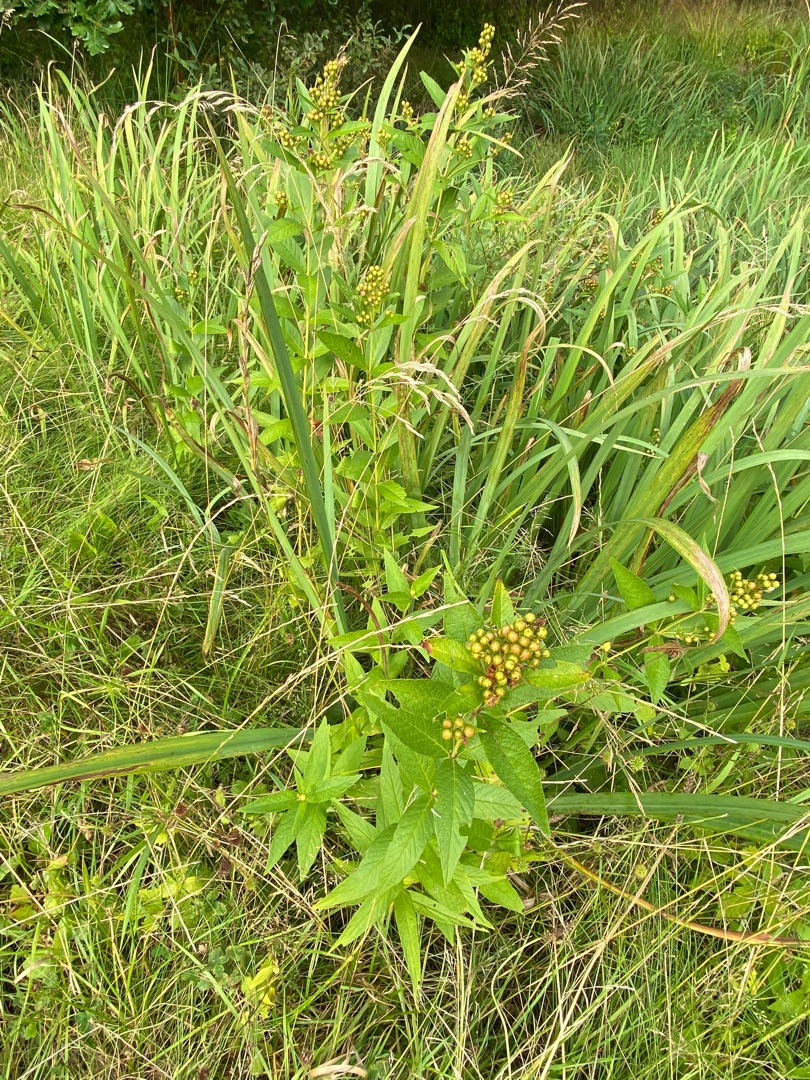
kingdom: Plantae
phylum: Tracheophyta
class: Magnoliopsida
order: Ericales
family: Primulaceae
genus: Lysimachia
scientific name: Lysimachia vulgaris
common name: Almindelig fredløs
